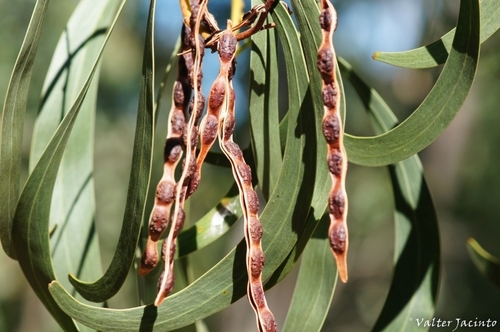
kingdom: Plantae
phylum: Tracheophyta
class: Magnoliopsida
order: Fabales
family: Fabaceae
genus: Acacia
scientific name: Acacia pycnantha
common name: Golden wattle
